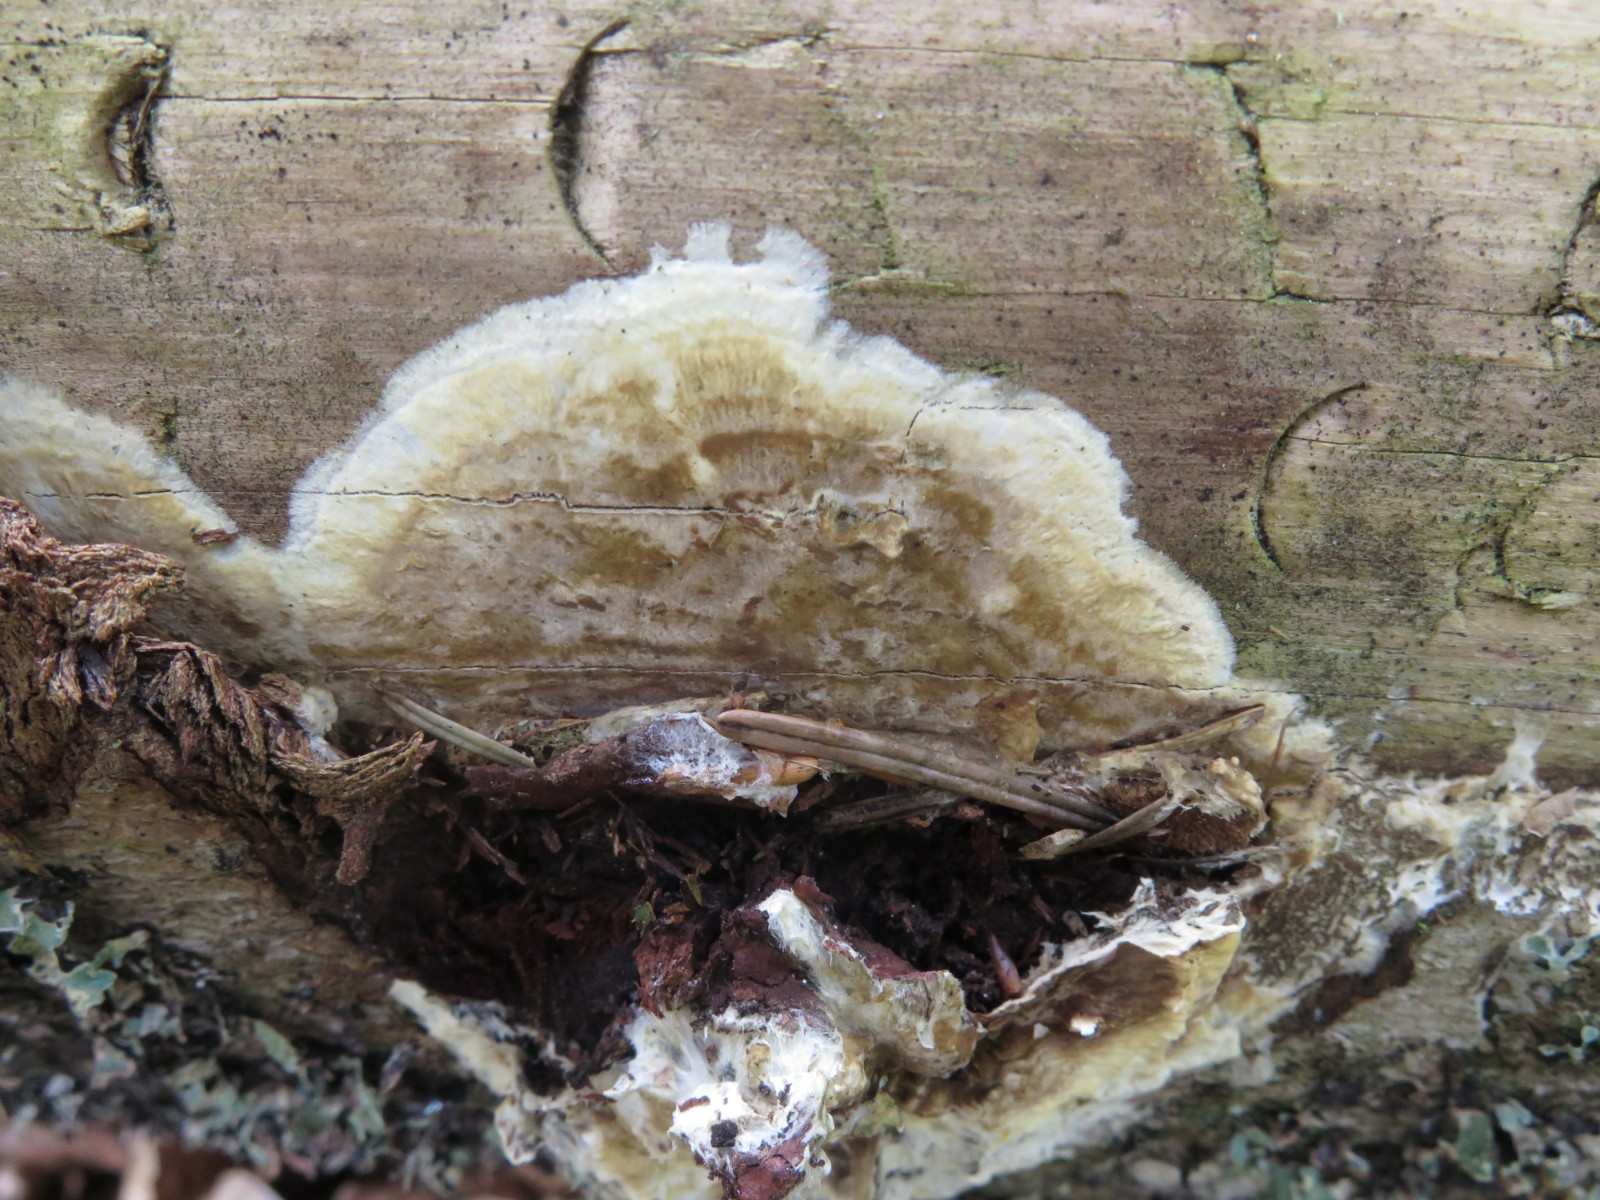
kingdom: Fungi
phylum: Basidiomycota
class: Agaricomycetes
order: Boletales
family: Coniophoraceae
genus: Coniophora
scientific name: Coniophora puteana
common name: gul tømmersvamp
